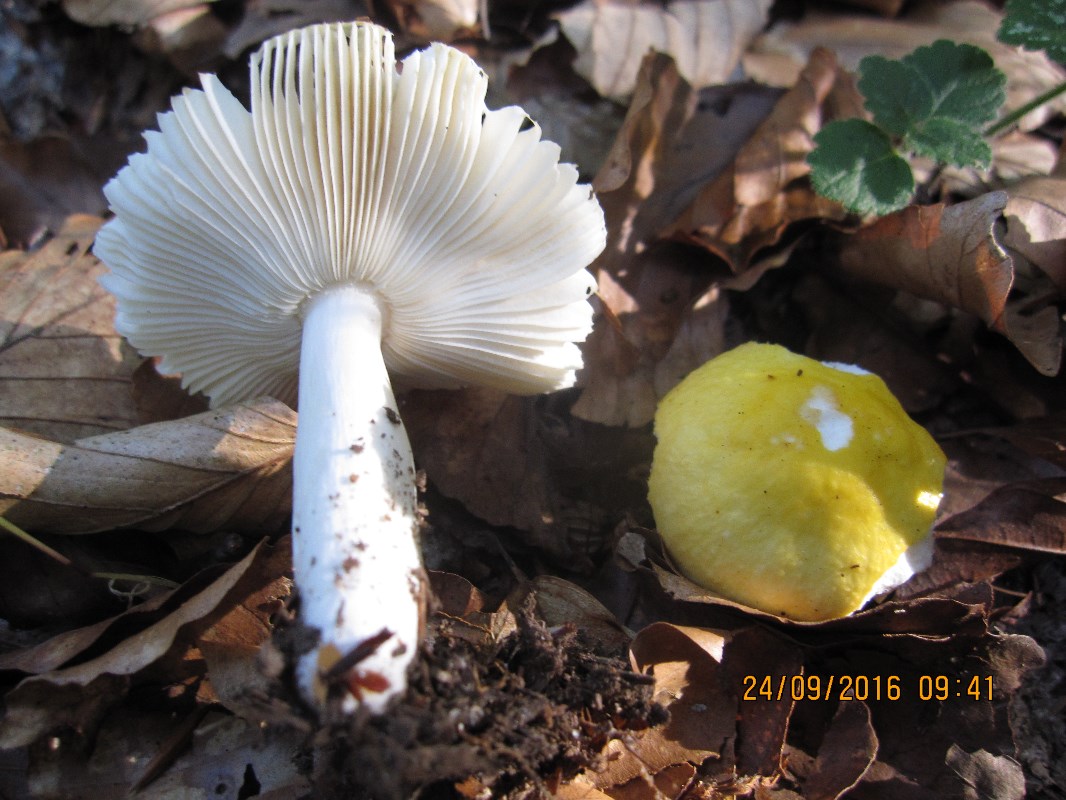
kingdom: Fungi
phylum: Basidiomycota
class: Agaricomycetes
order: Russulales
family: Russulaceae
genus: Russula
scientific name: Russula solaris
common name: sol-skørhat
